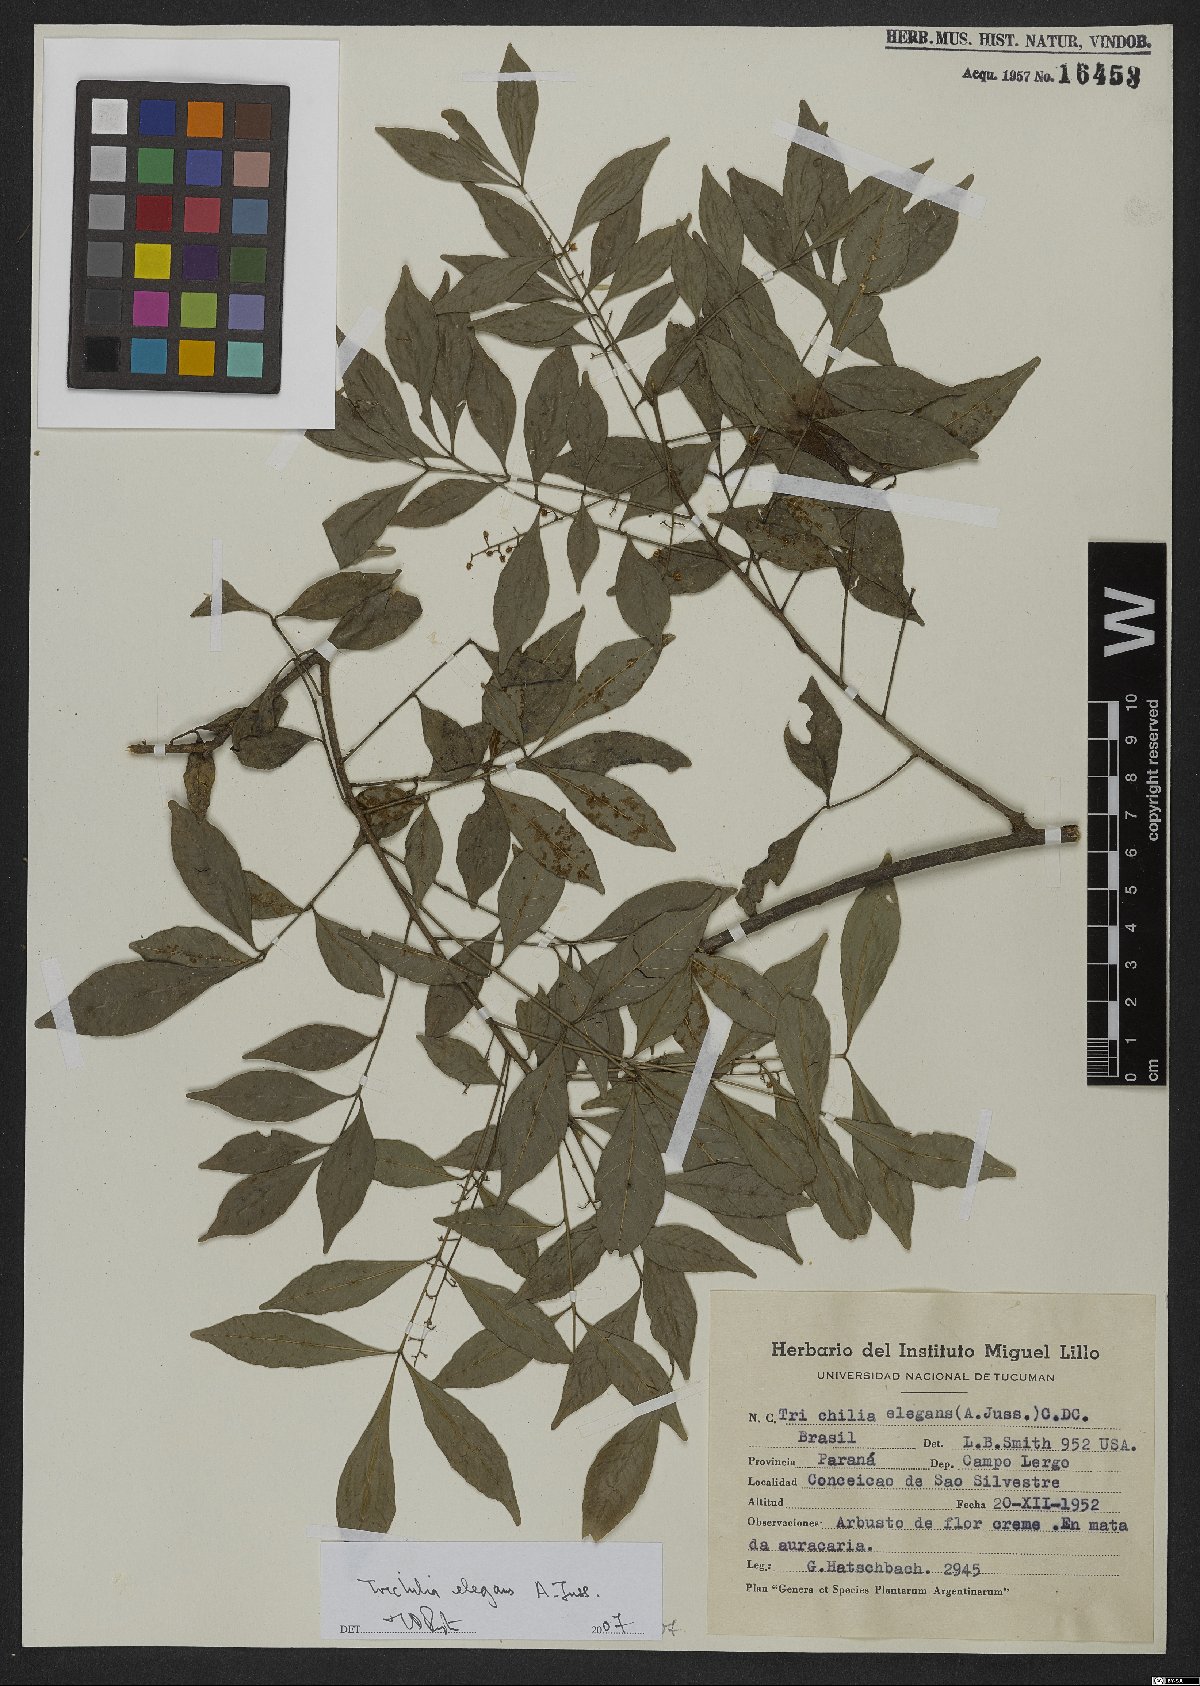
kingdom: Plantae
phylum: Tracheophyta
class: Magnoliopsida
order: Sapindales
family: Meliaceae
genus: Trichilia
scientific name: Trichilia elegans
